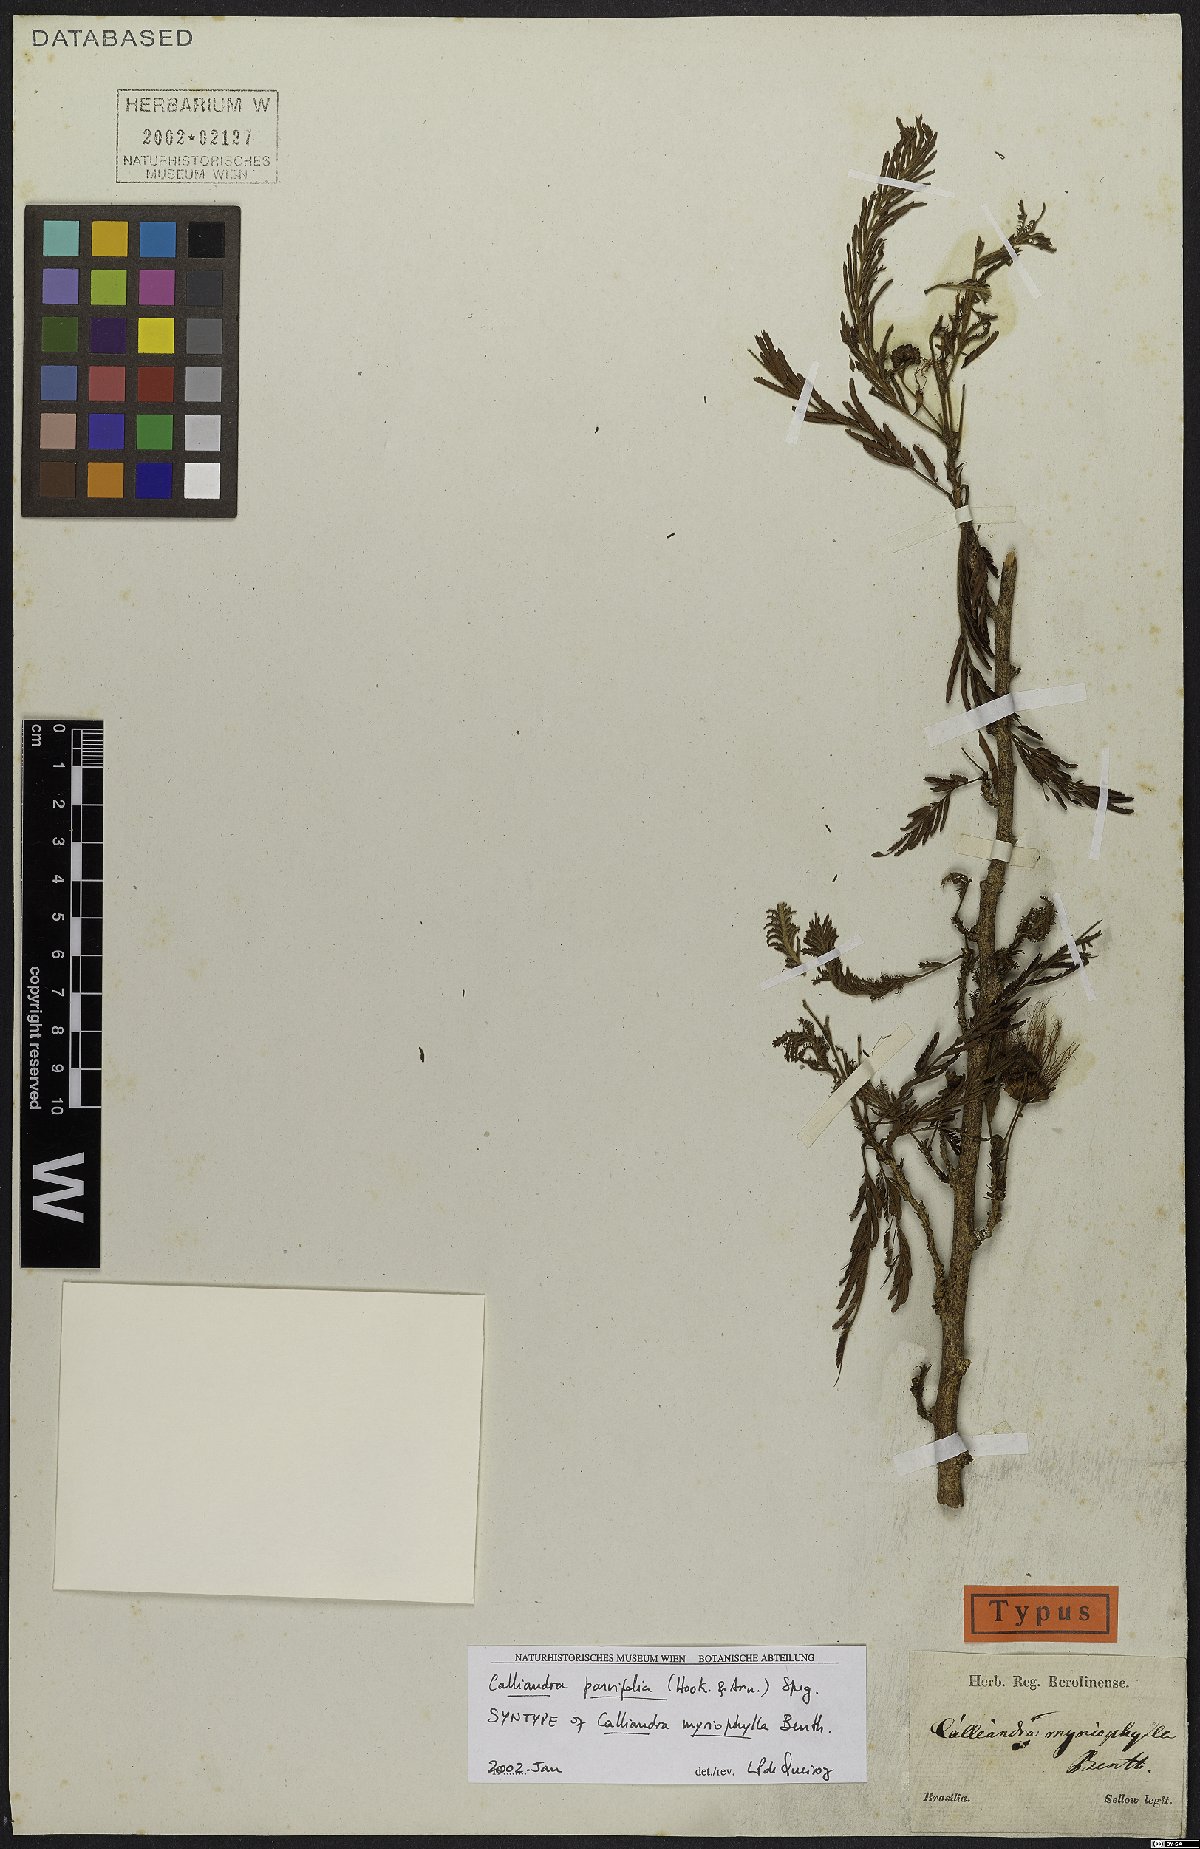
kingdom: Plantae
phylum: Tracheophyta
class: Magnoliopsida
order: Fabales
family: Fabaceae
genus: Calliandra
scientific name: Calliandra parvifolia
